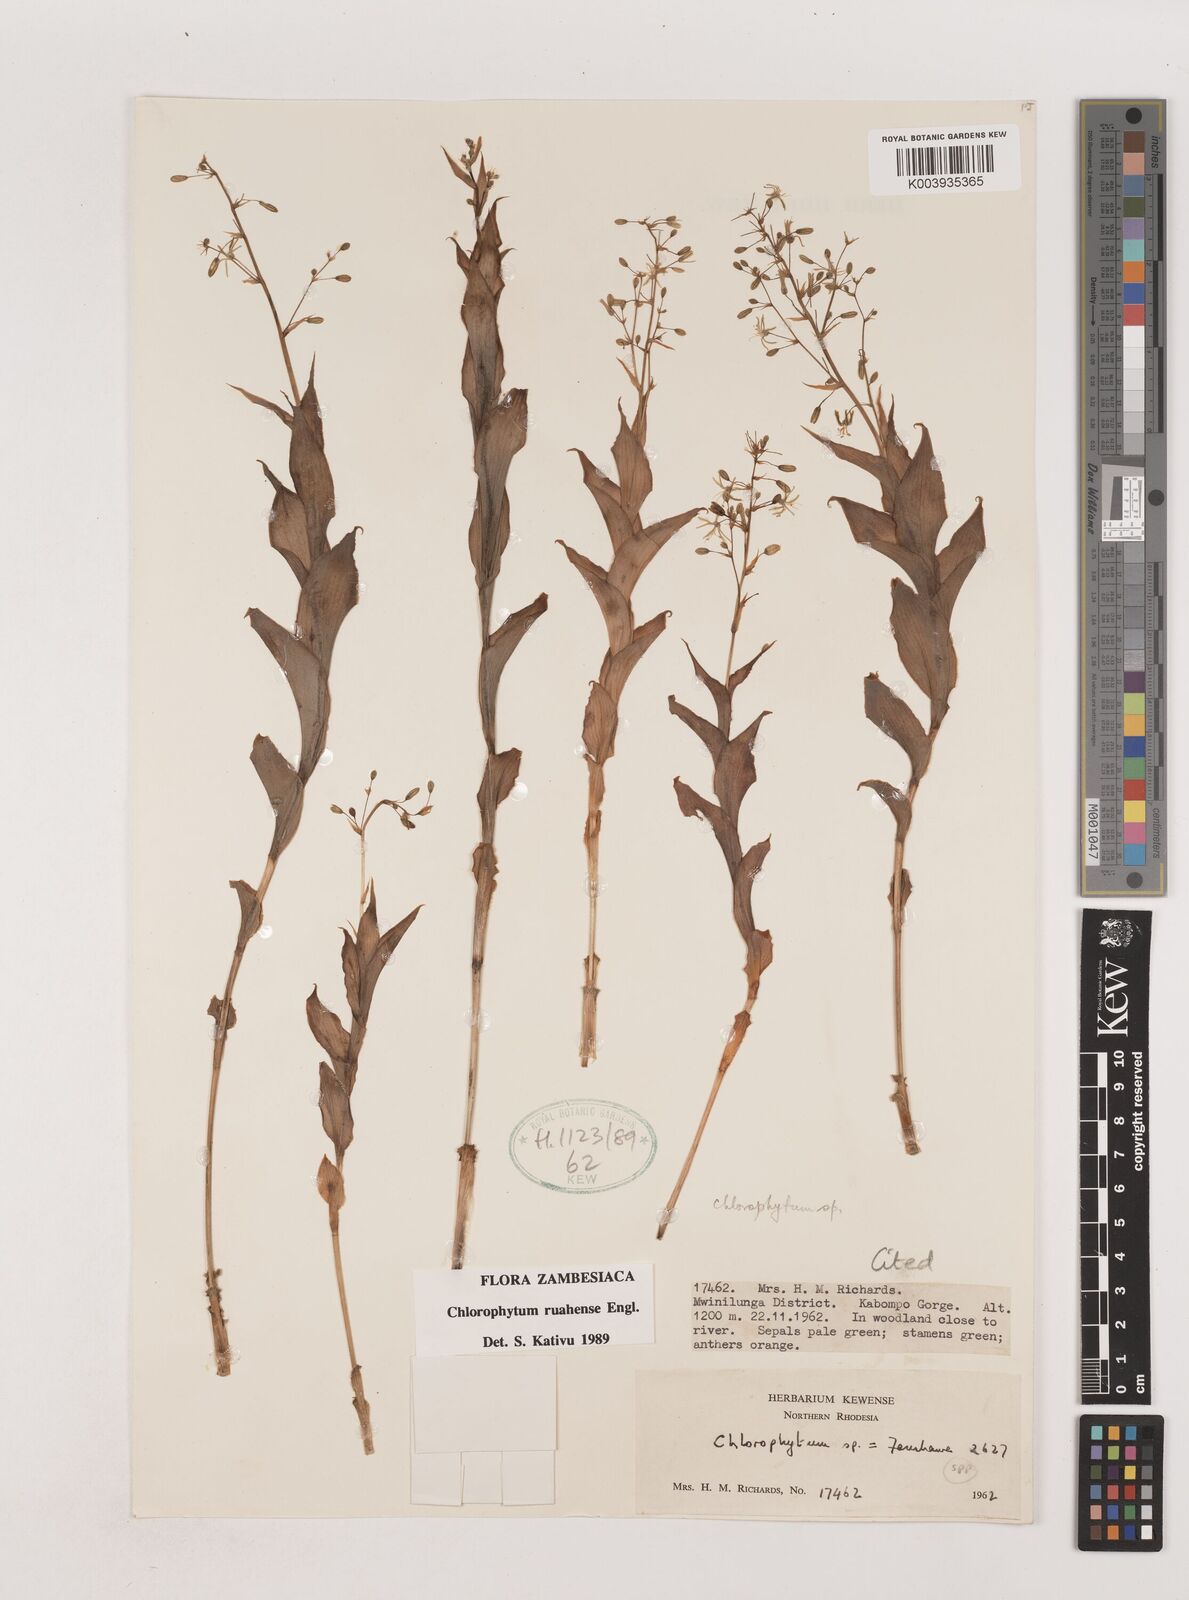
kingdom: Plantae
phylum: Tracheophyta
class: Liliopsida
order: Asparagales
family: Asparagaceae
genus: Chlorophytum
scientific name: Chlorophytum ruahense
